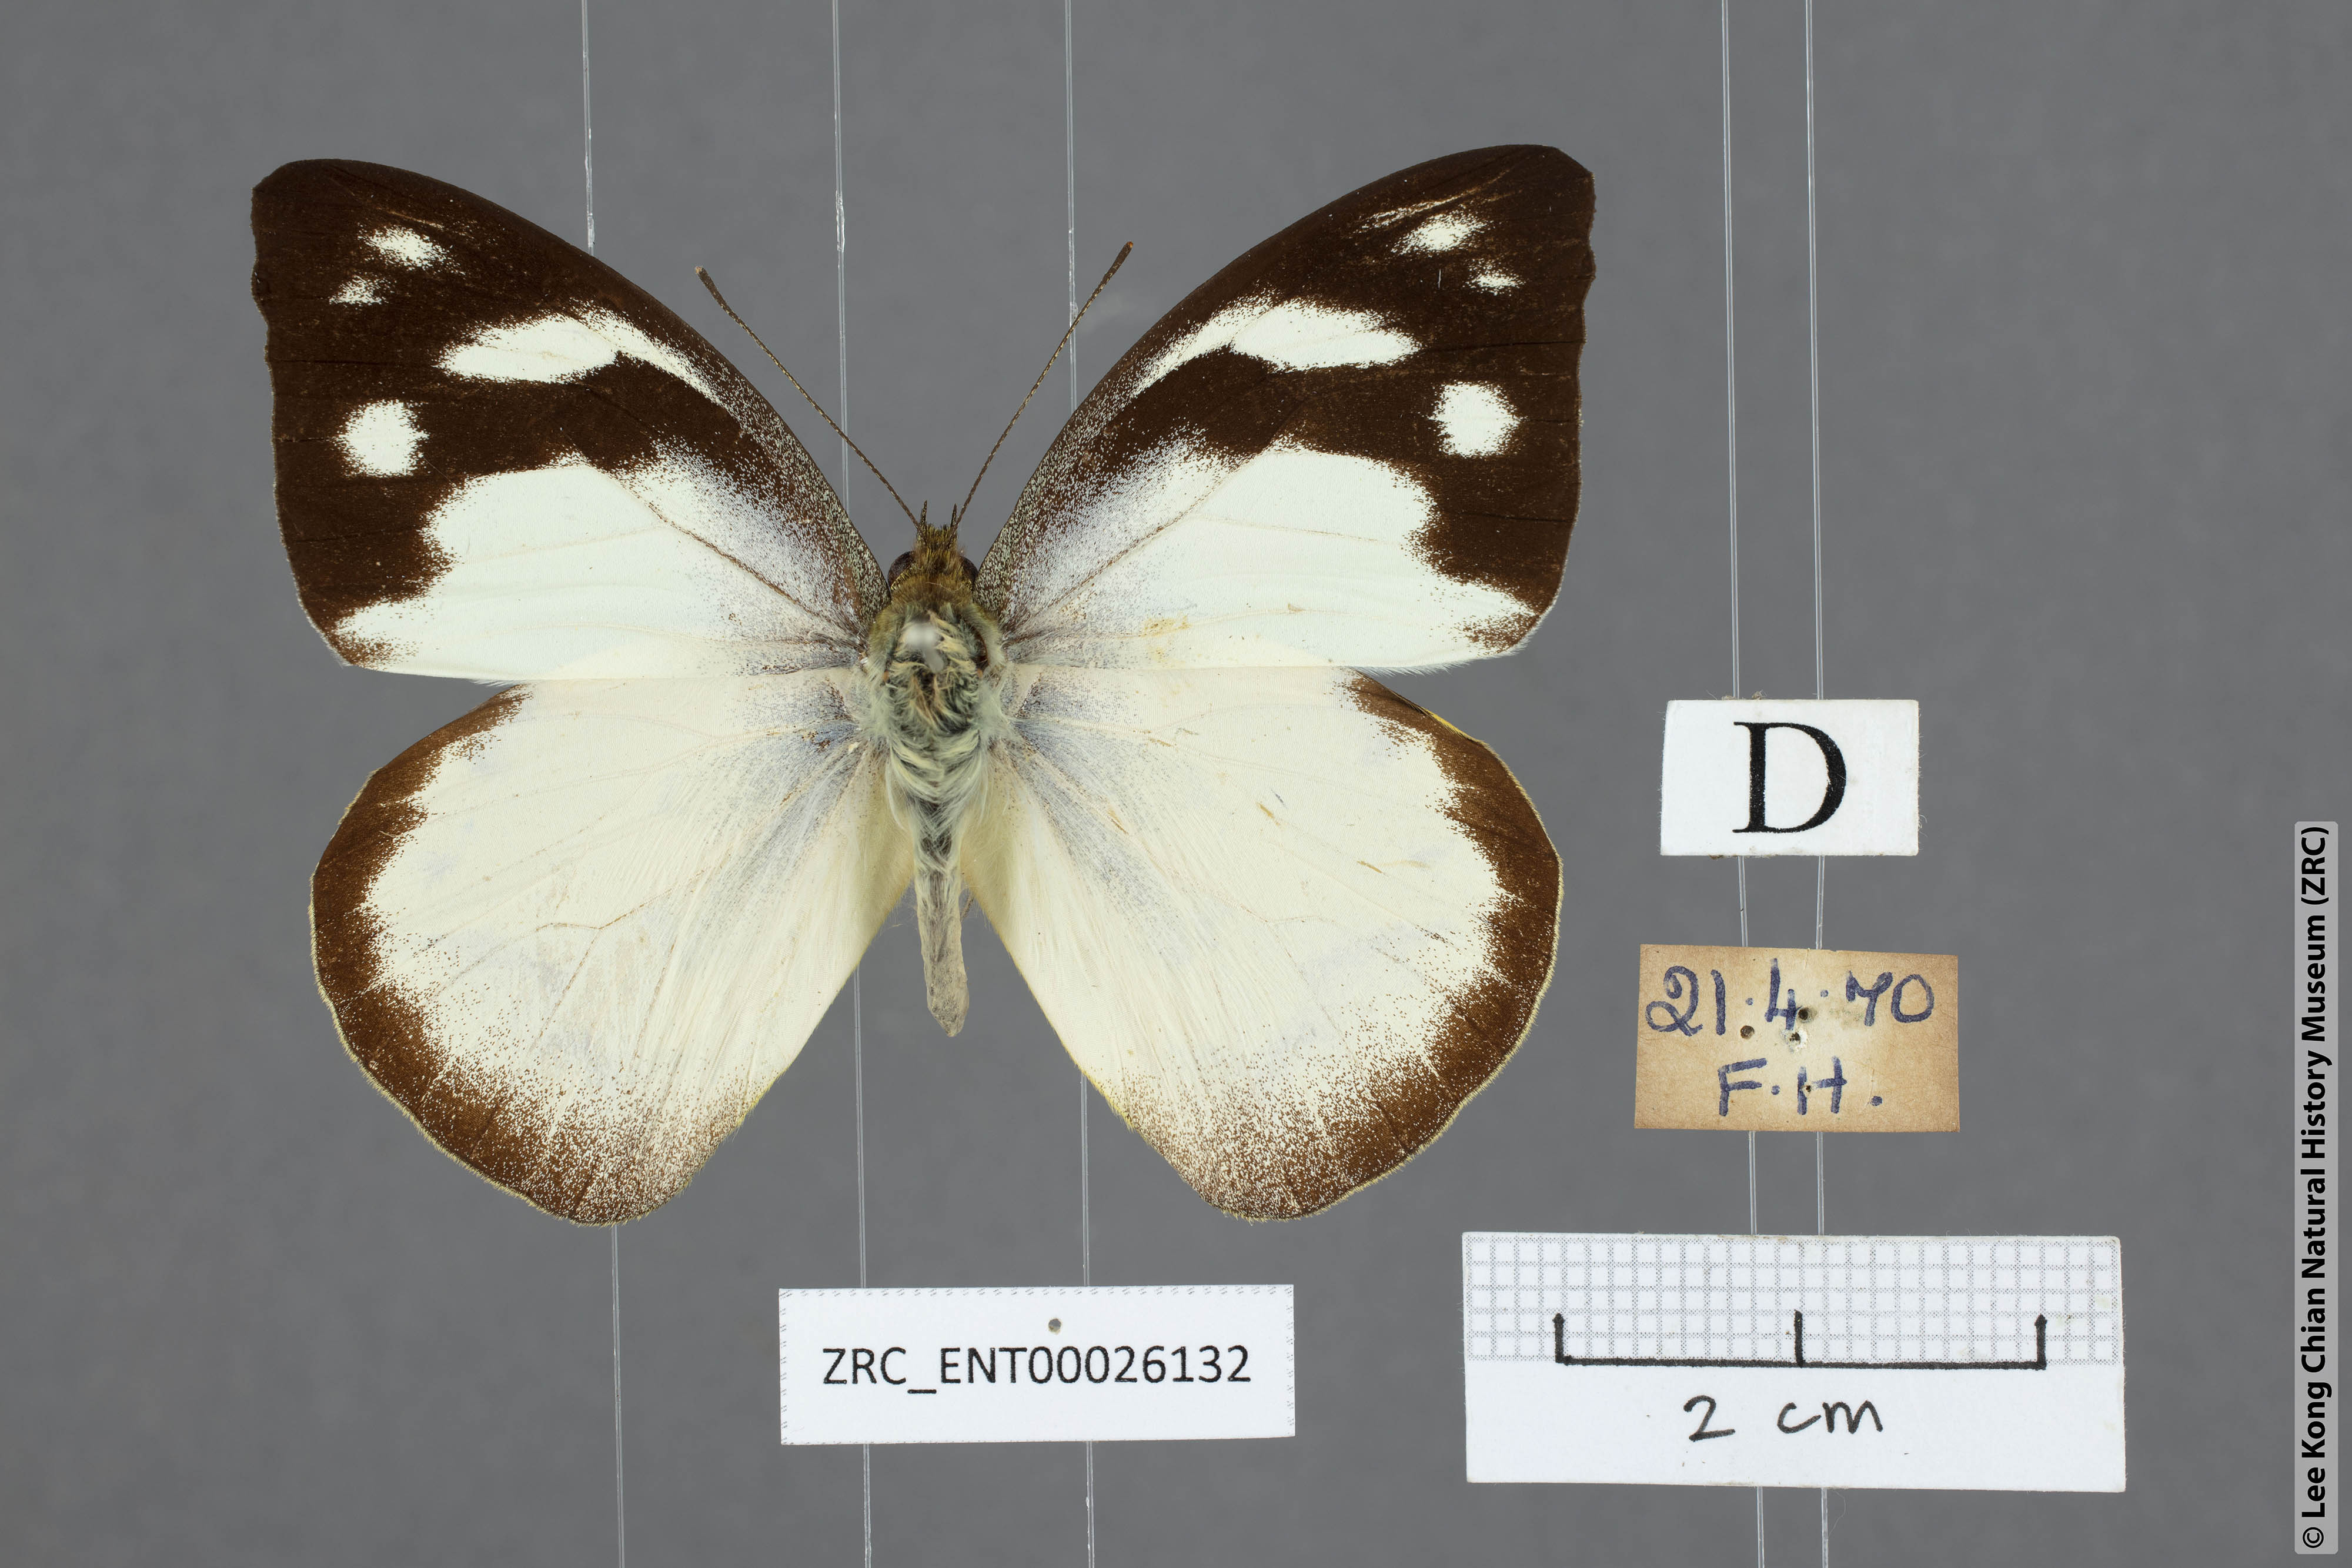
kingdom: Animalia
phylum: Arthropoda
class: Insecta
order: Lepidoptera
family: Pieridae
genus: Appias
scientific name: Appias pandione
